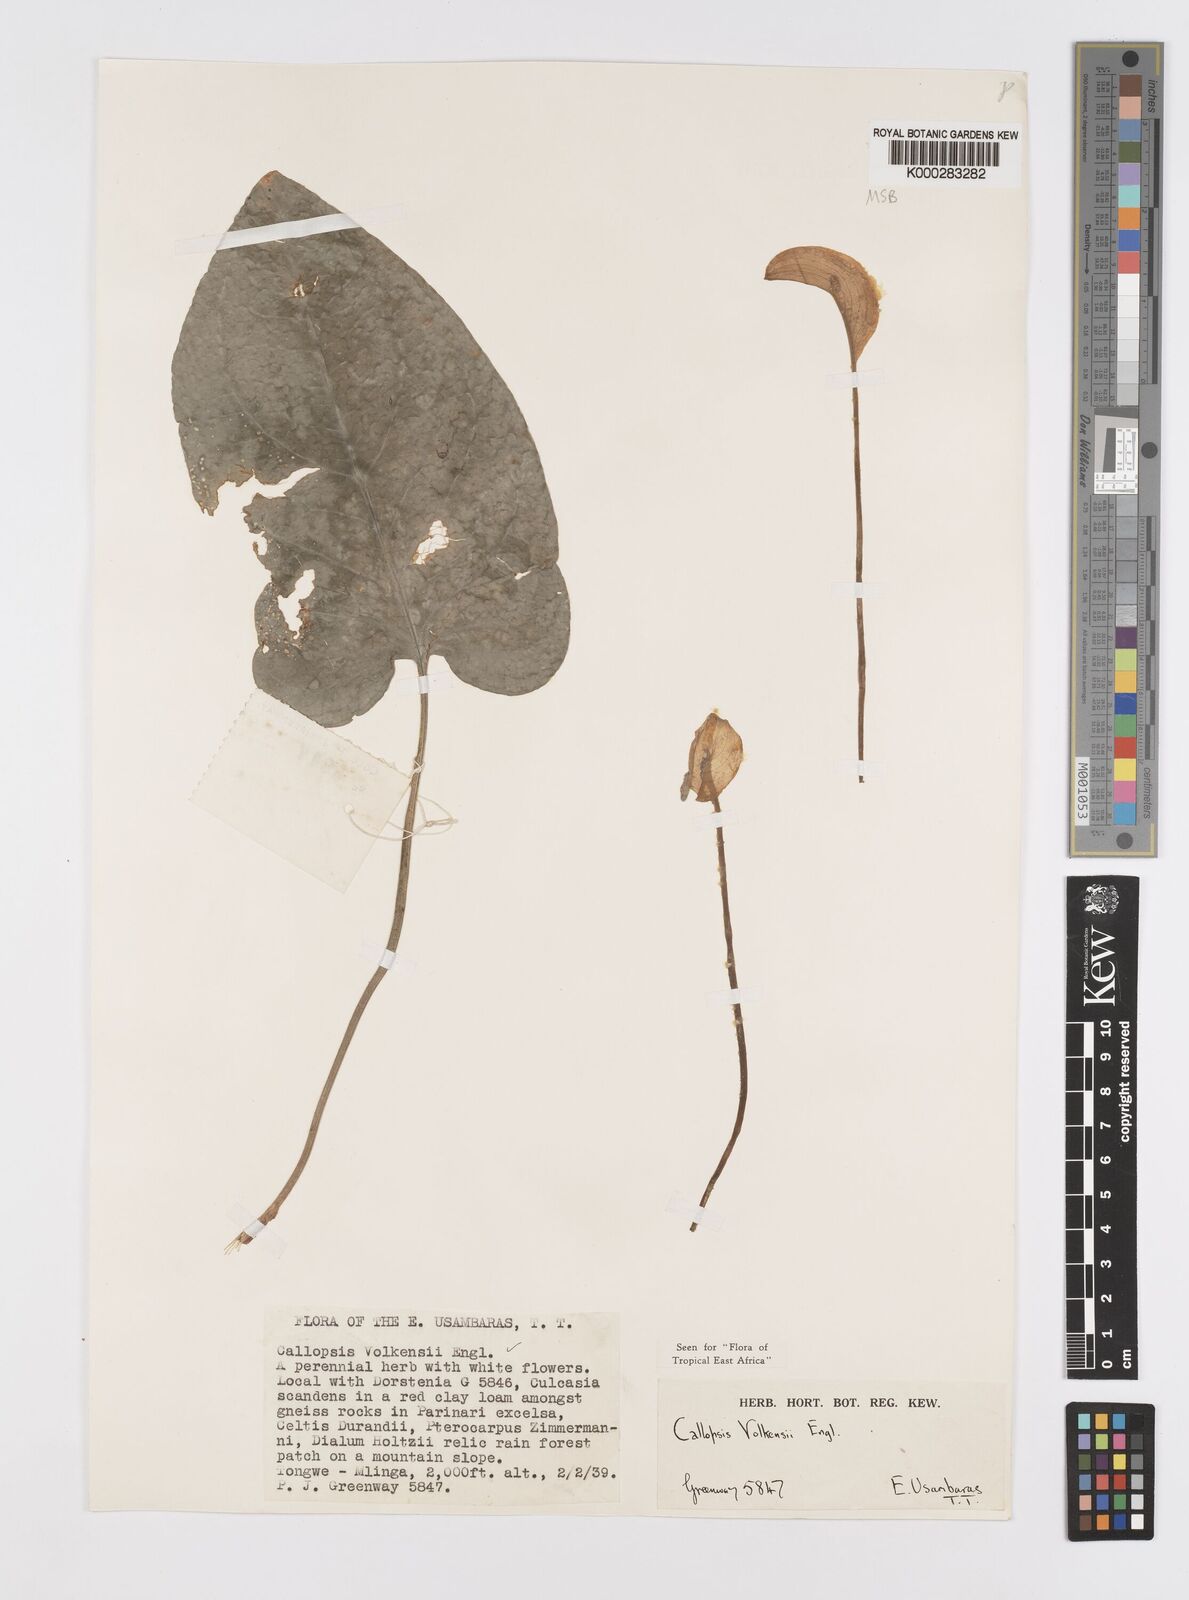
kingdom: Plantae
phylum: Tracheophyta
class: Liliopsida
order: Alismatales
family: Araceae
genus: Callopsis
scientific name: Callopsis volkensii
